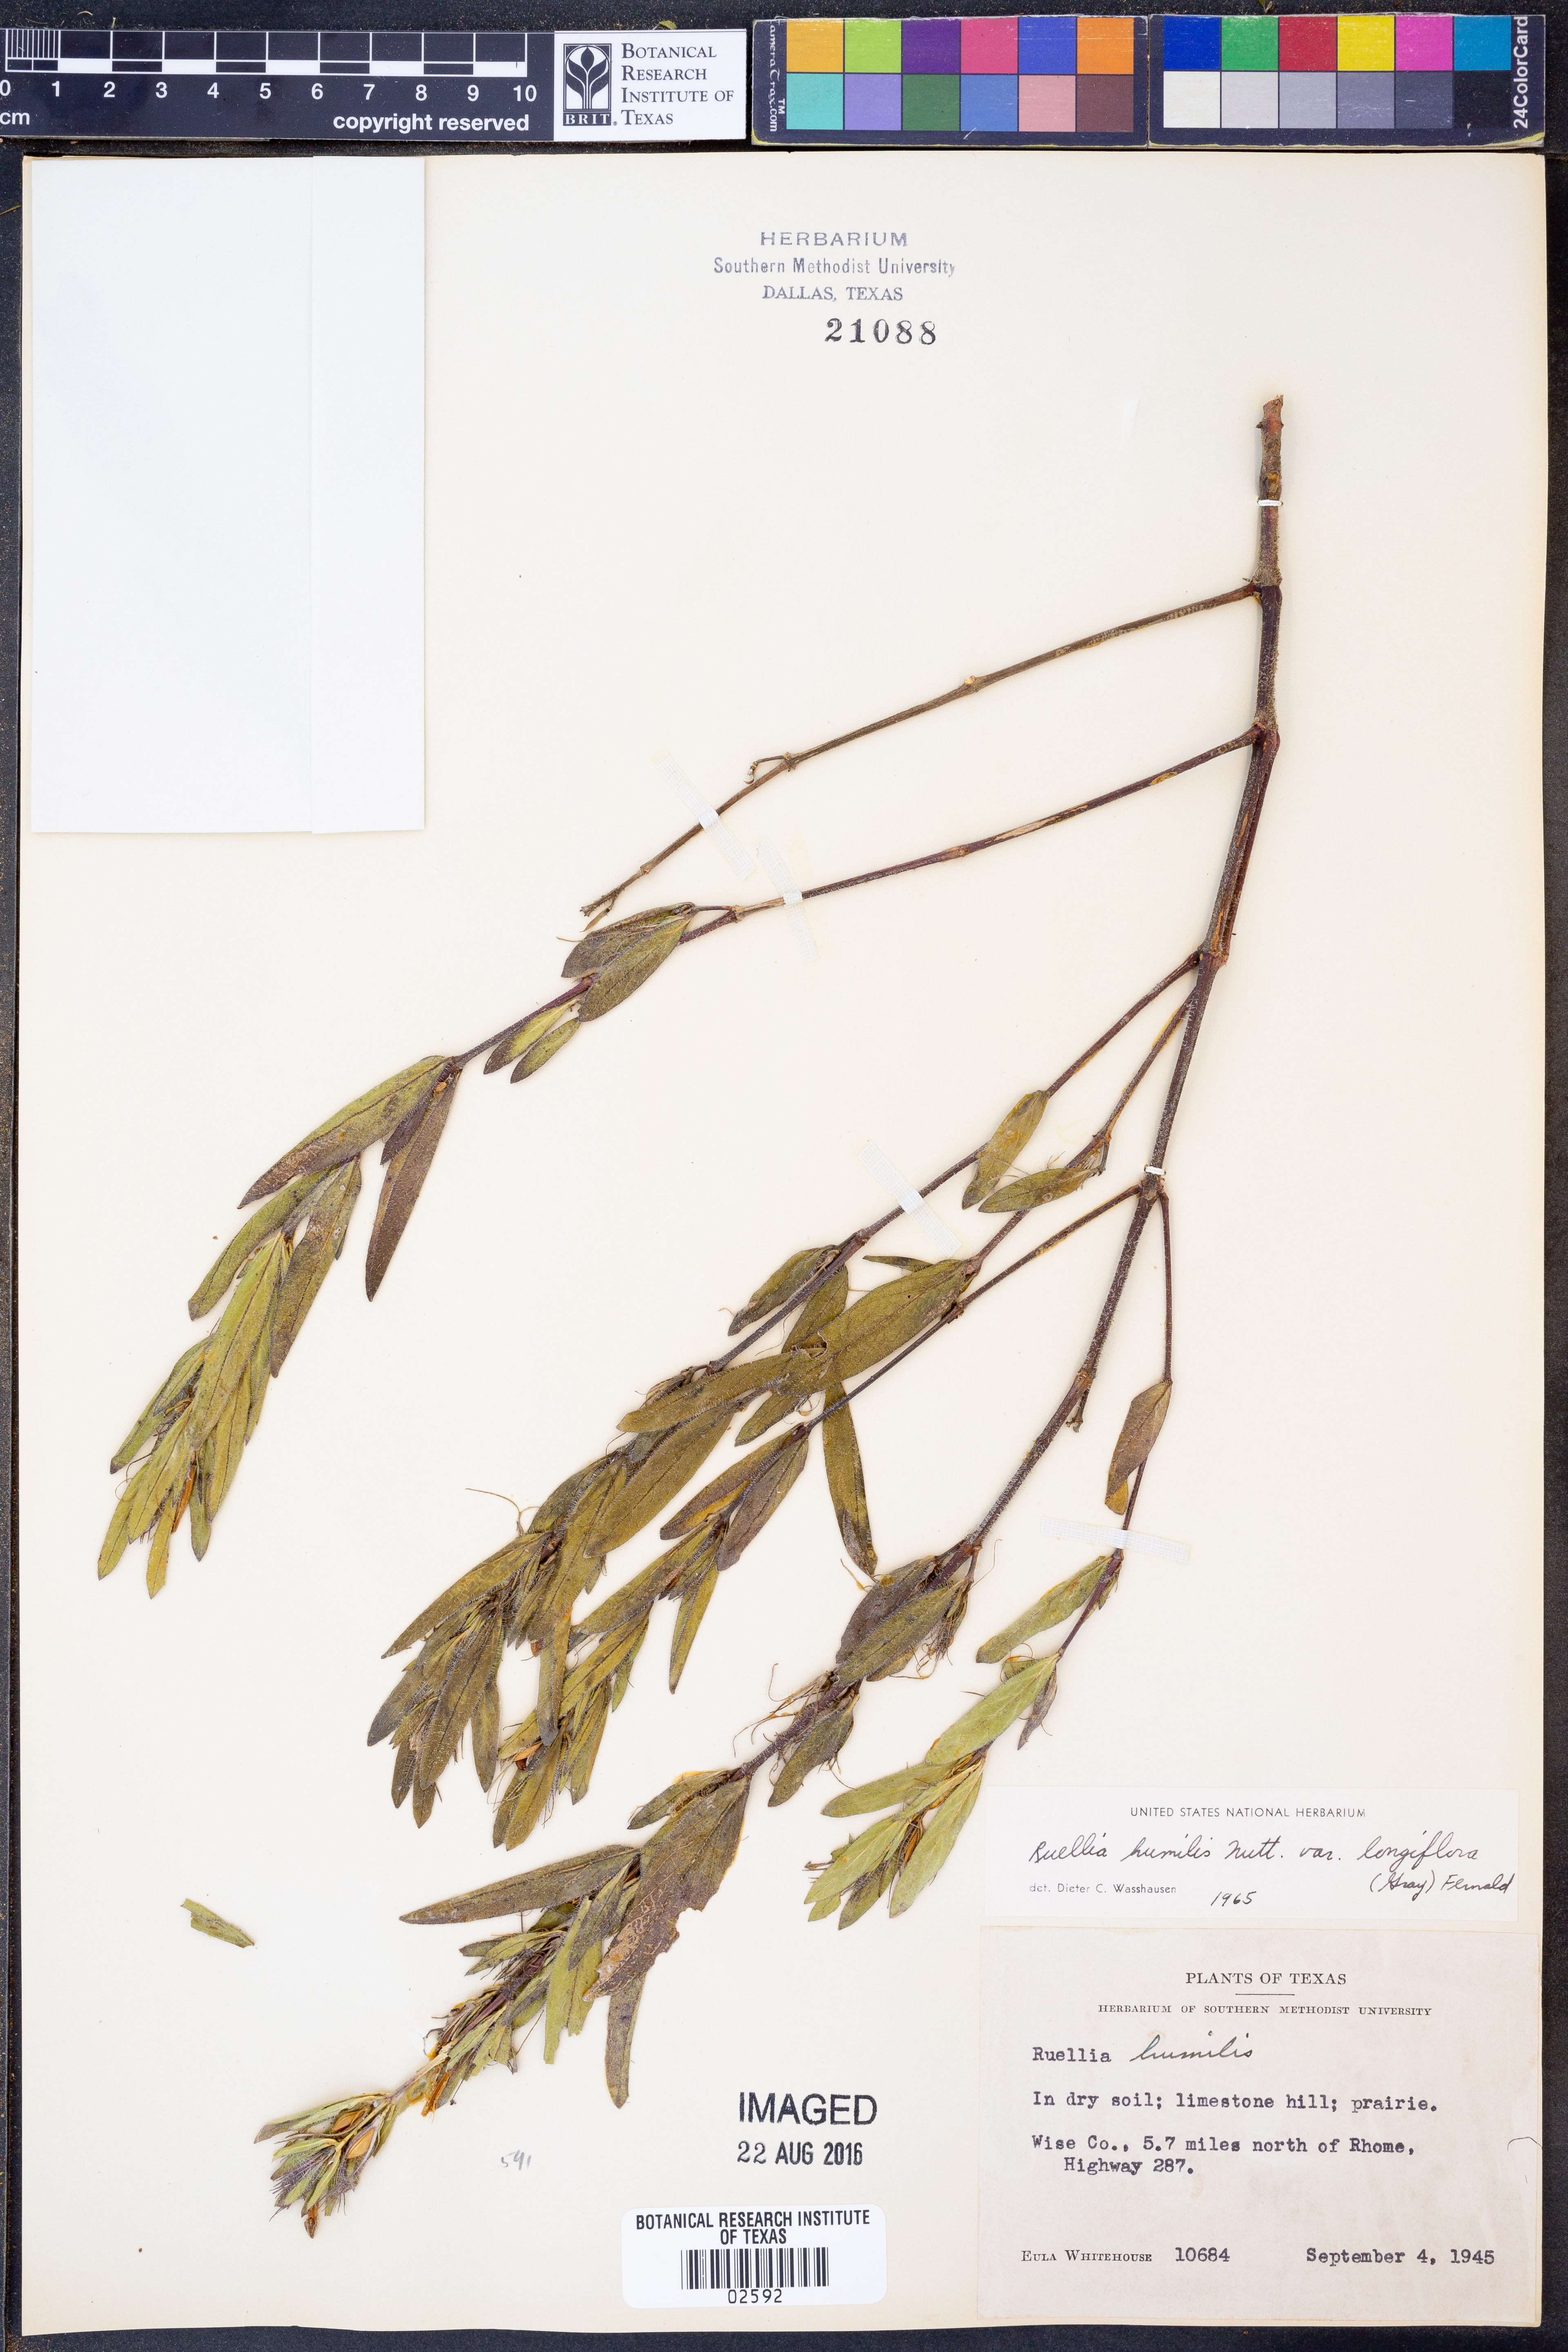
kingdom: Plantae
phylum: Tracheophyta
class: Magnoliopsida
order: Lamiales
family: Acanthaceae
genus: Ruellia
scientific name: Ruellia humilis
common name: Fringe-leaf ruellia
